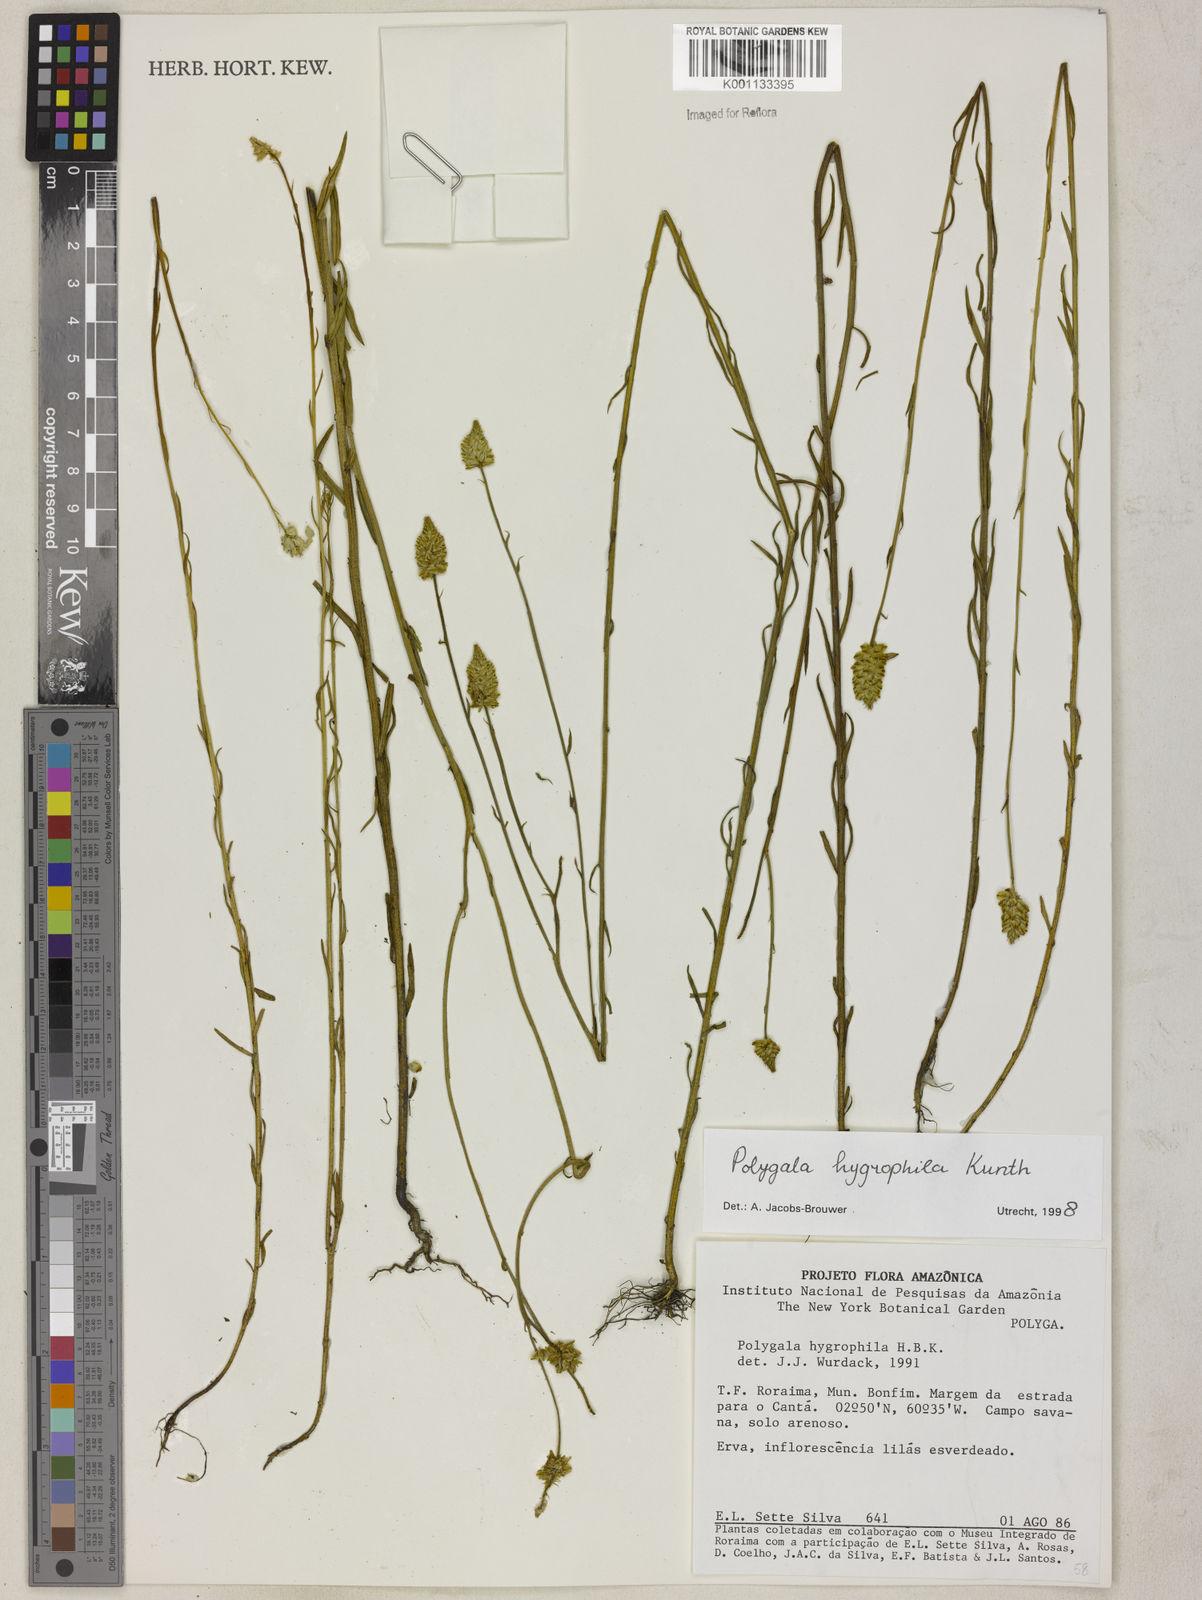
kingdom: Plantae
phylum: Tracheophyta
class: Magnoliopsida
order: Fabales
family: Polygalaceae
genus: Polygala
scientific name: Polygala hygrophila
